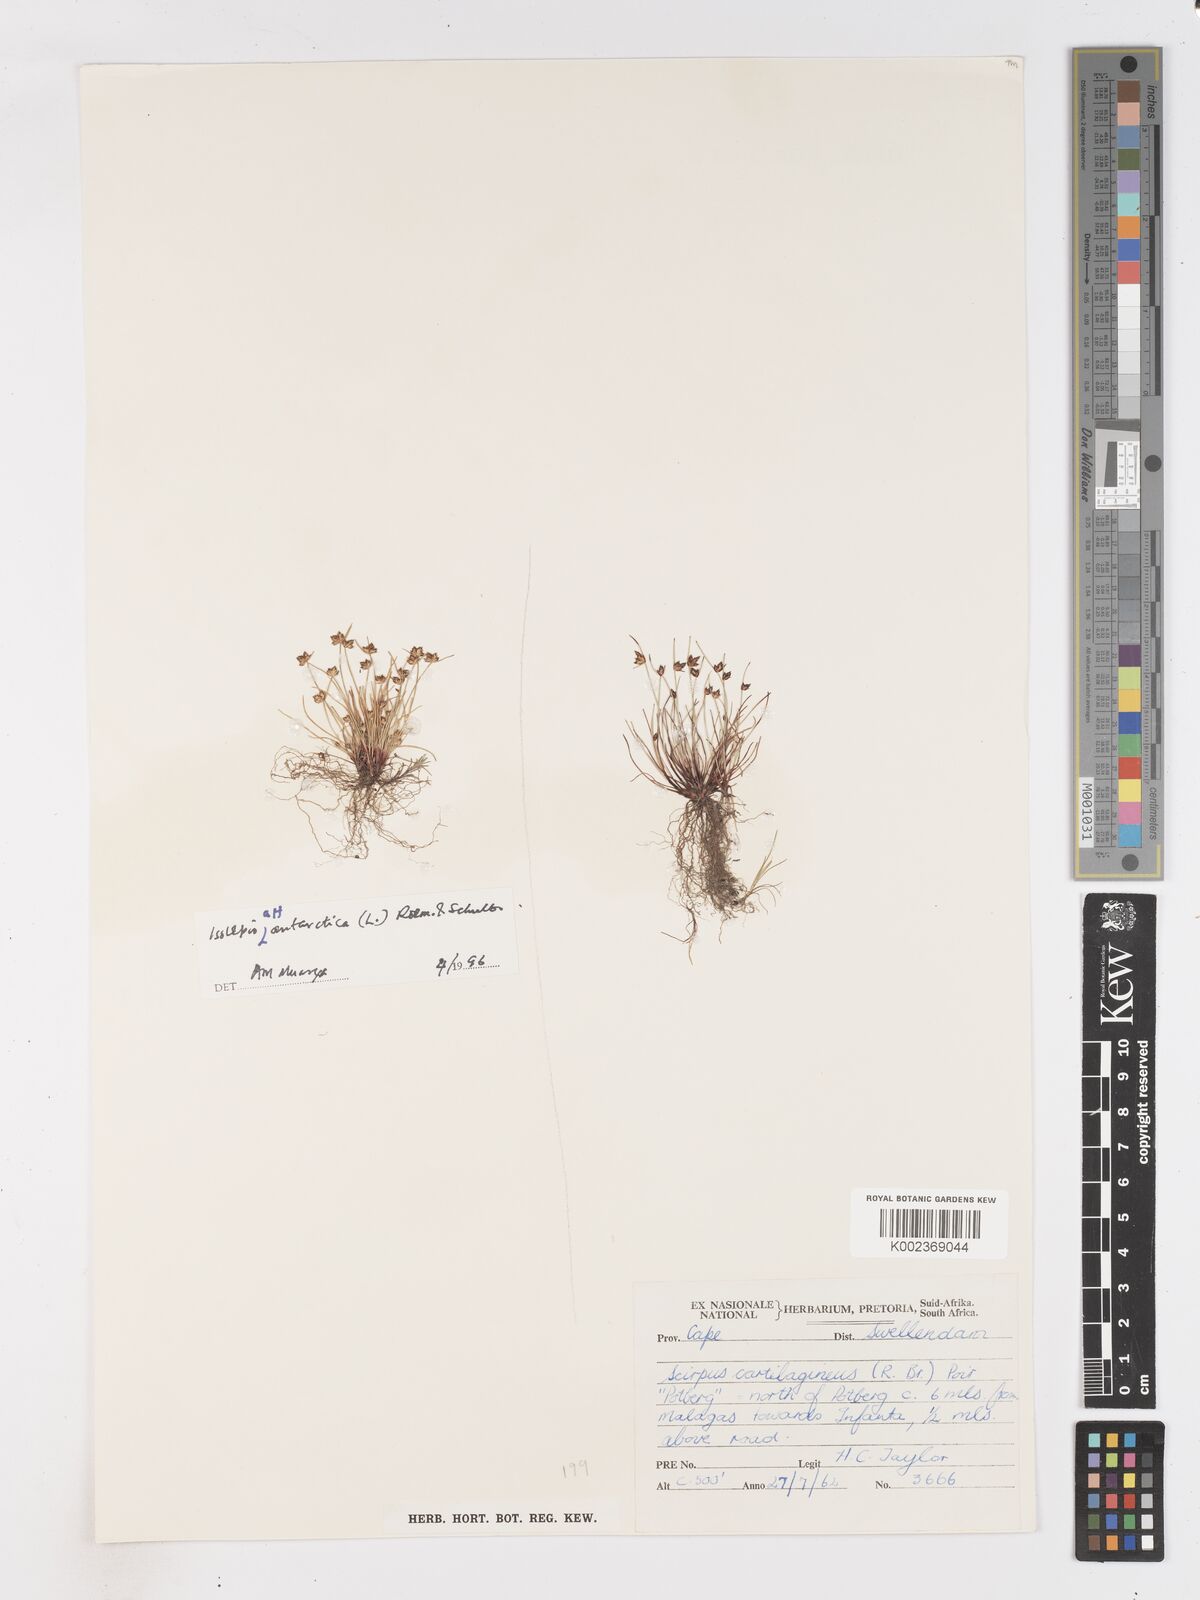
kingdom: Plantae
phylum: Tracheophyta
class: Liliopsida
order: Poales
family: Cyperaceae
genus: Isolepis
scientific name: Isolepis diabolica
